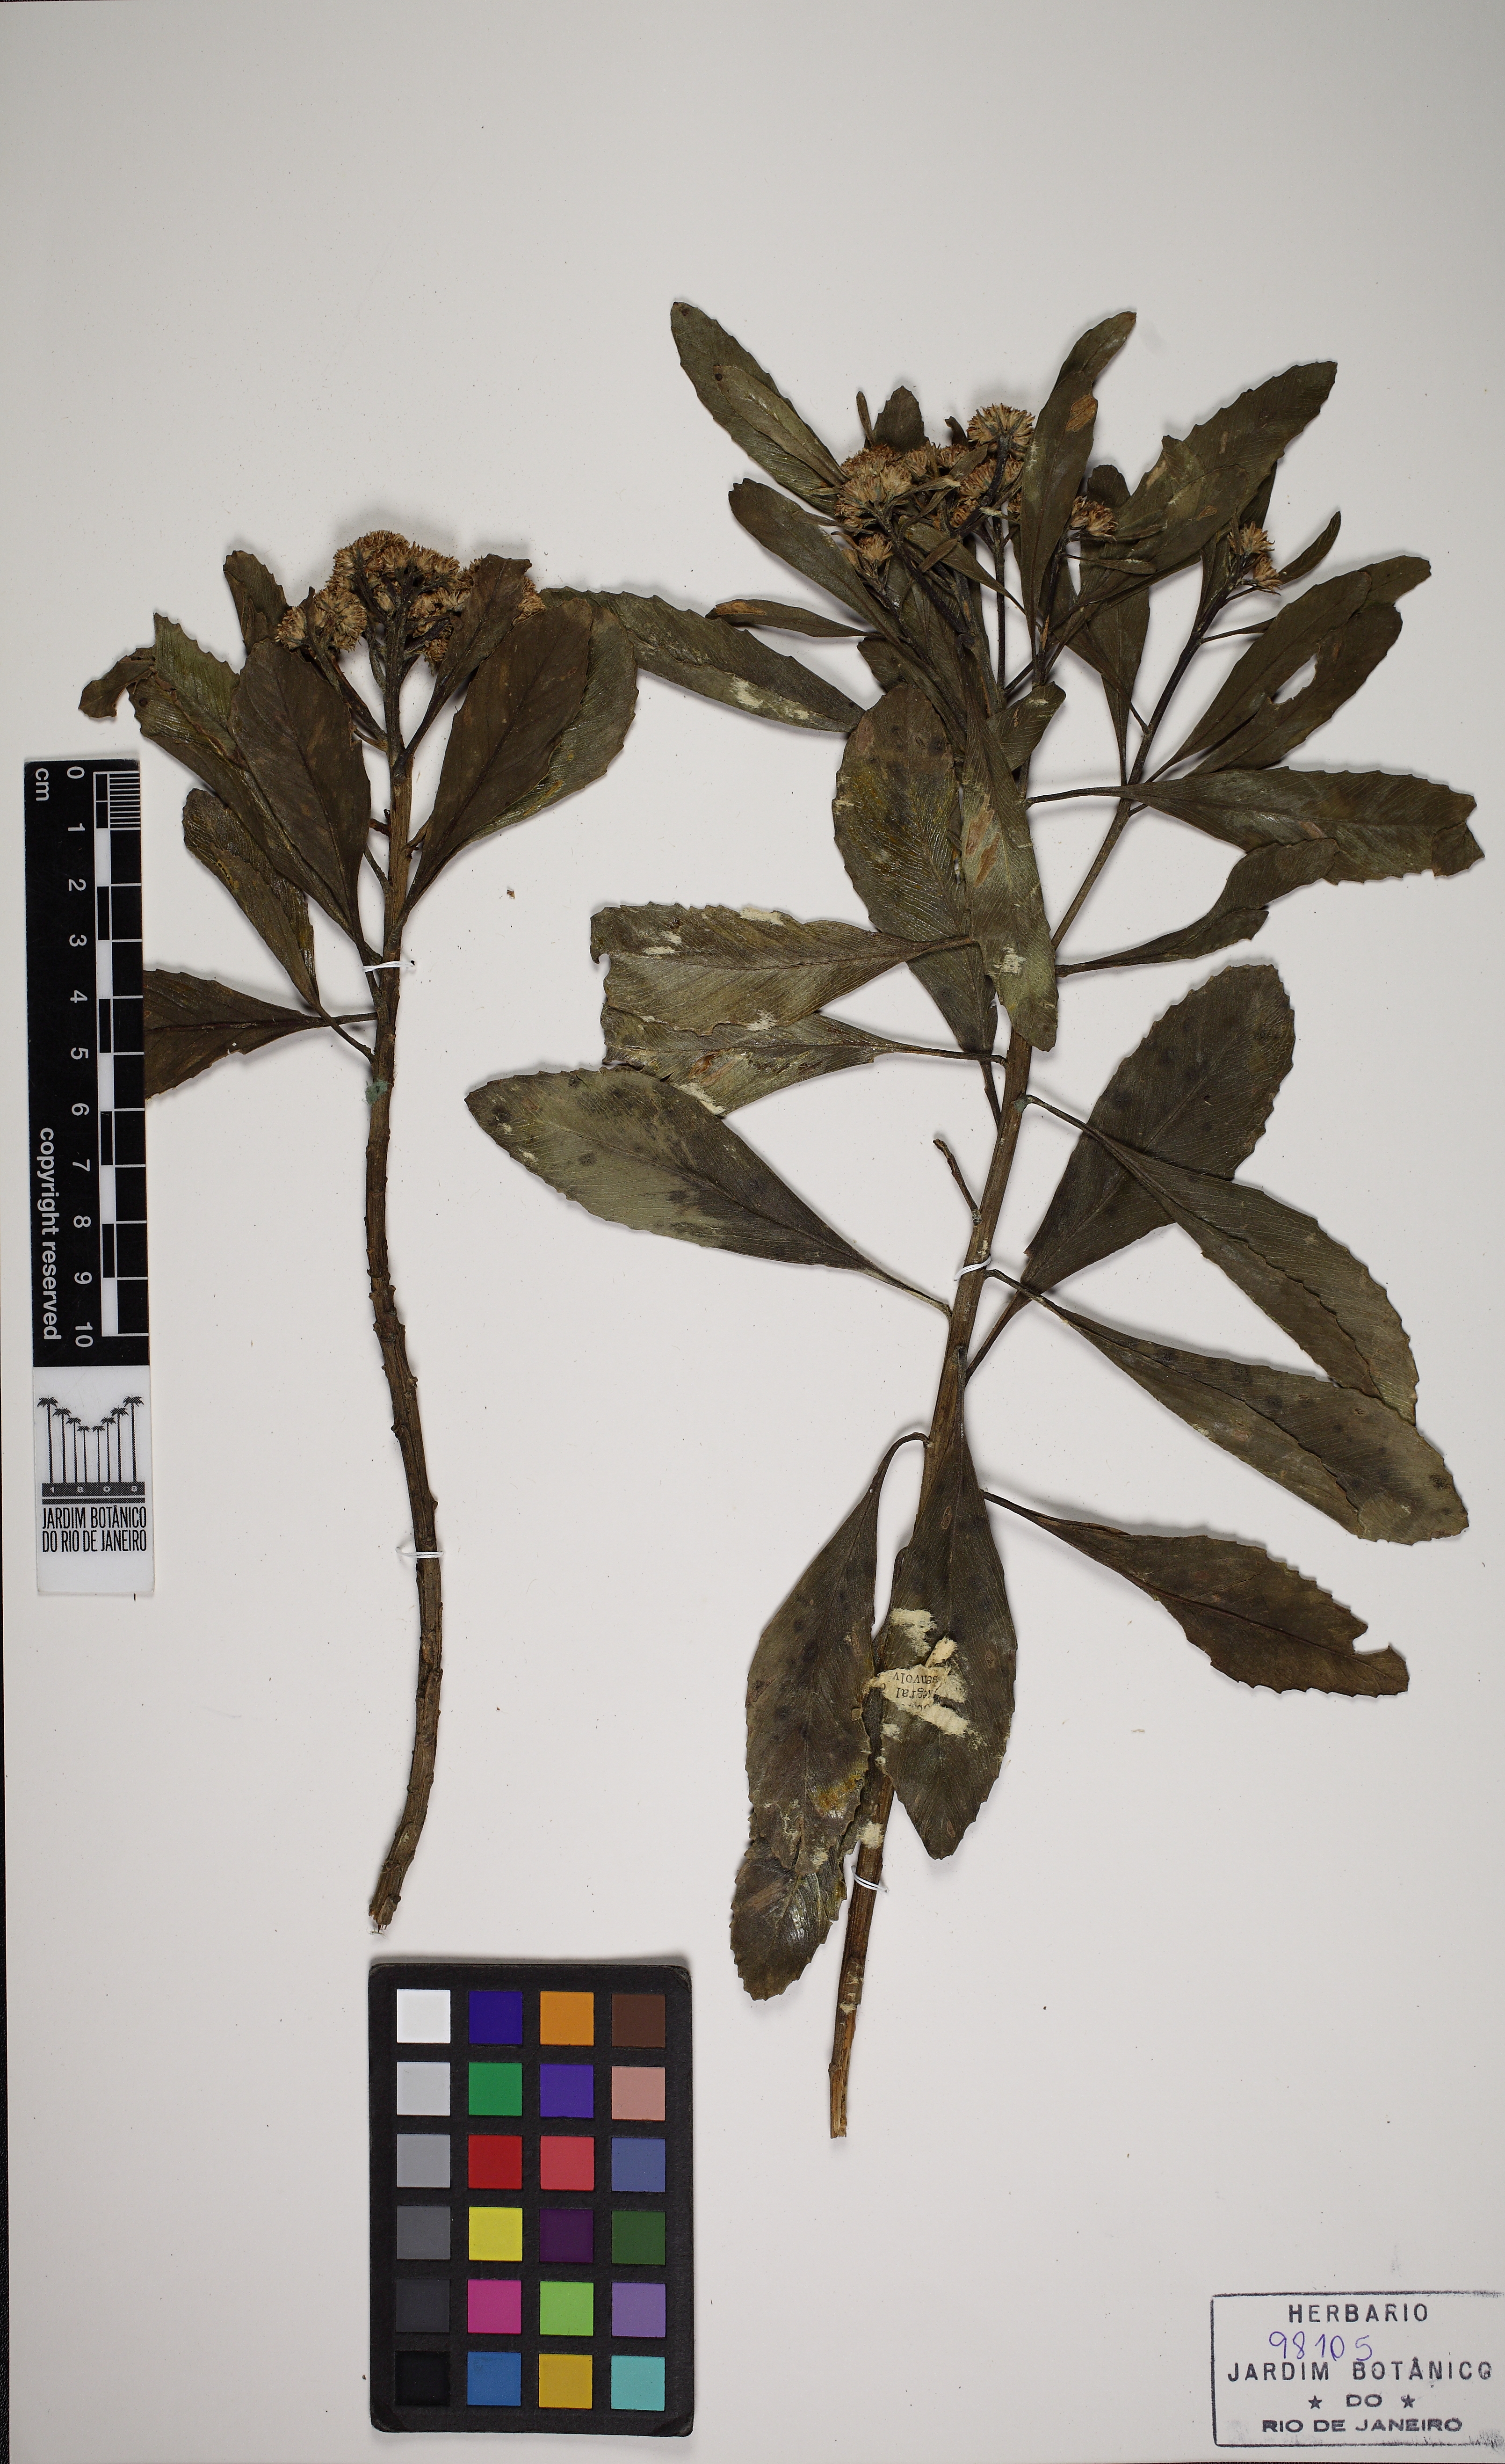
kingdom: Plantae
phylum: Tracheophyta
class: Magnoliopsida
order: Asterales
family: Asteraceae
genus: Baccharis
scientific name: Baccharis platypoda
